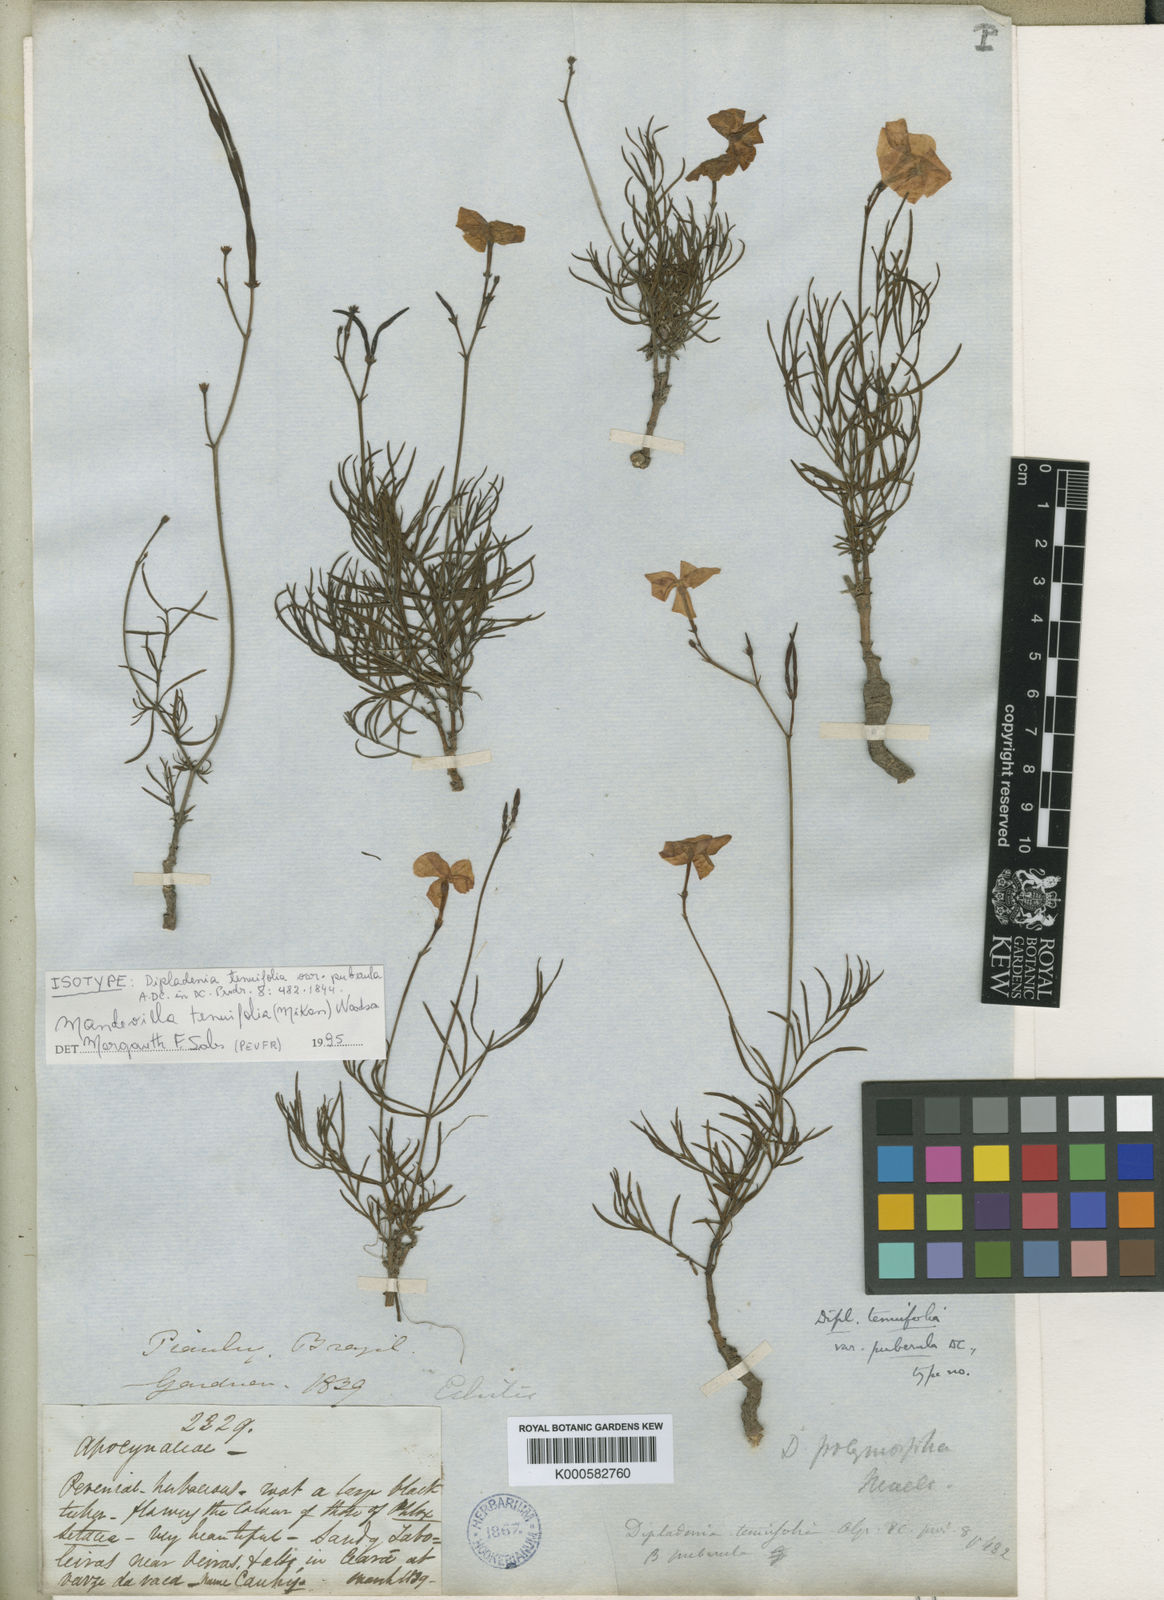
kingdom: Plantae
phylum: Tracheophyta
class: Magnoliopsida
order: Gentianales
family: Apocynaceae
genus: Mandevilla
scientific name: Mandevilla tenuifolia
